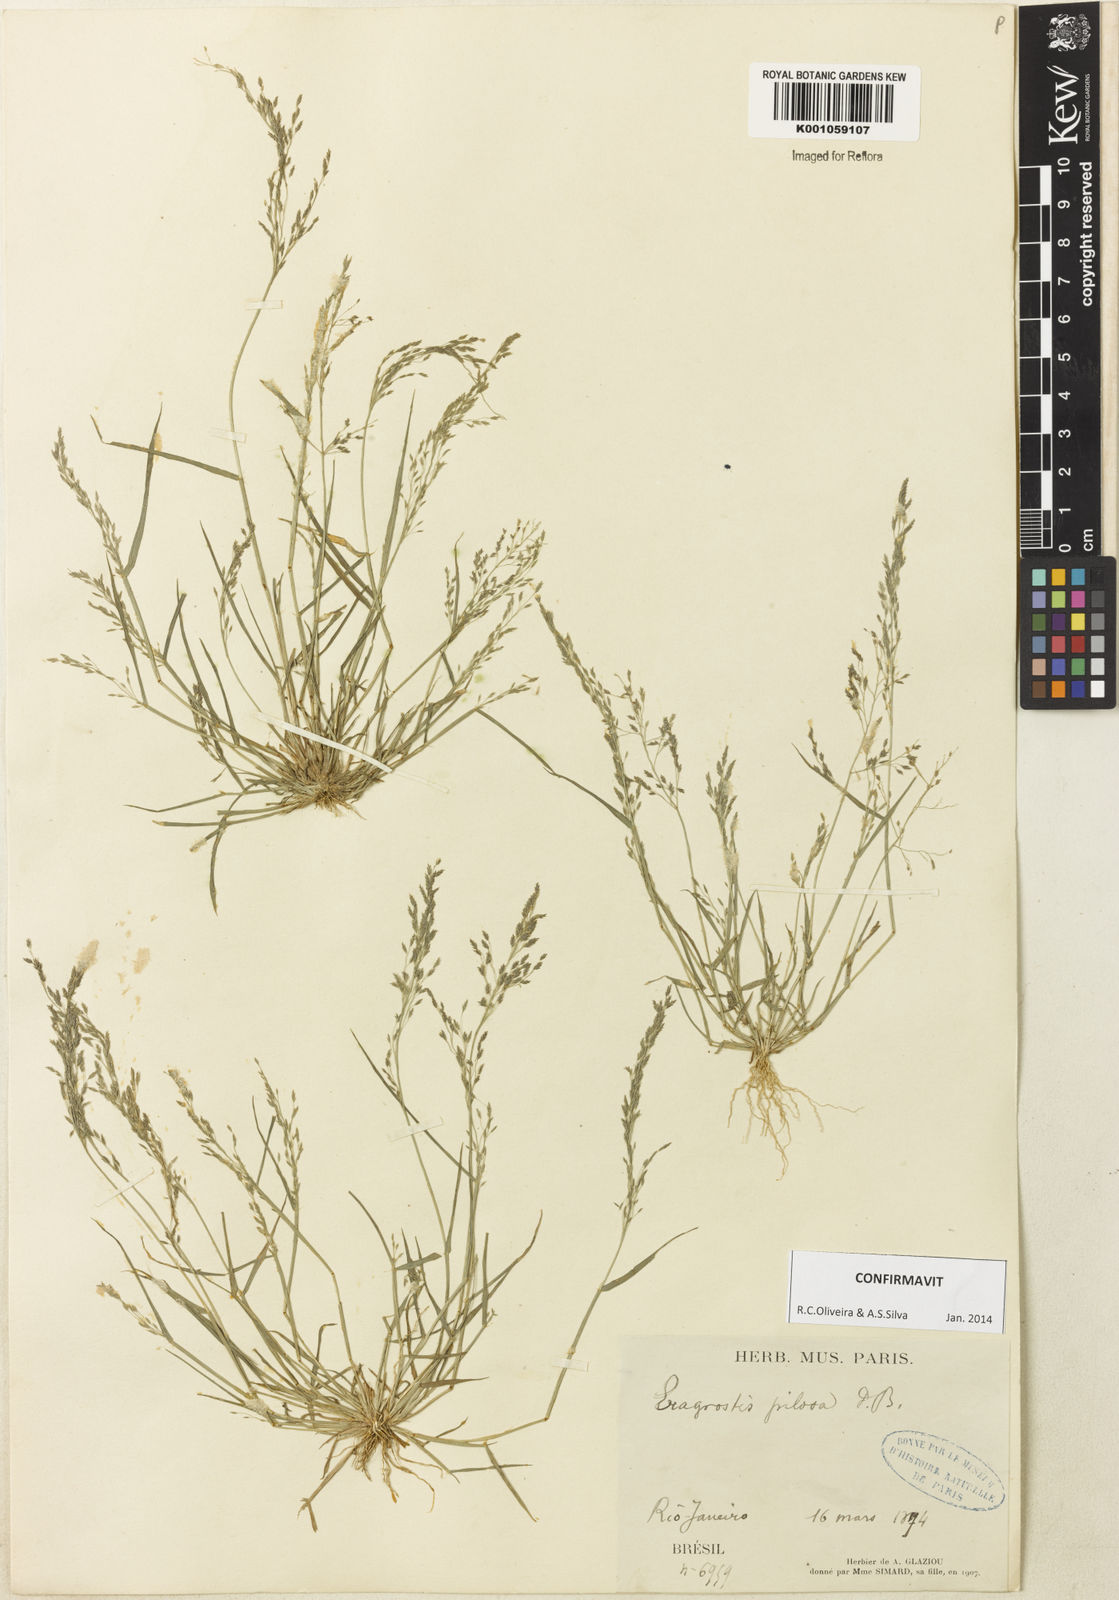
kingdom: Plantae
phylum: Tracheophyta
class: Liliopsida
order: Poales
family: Poaceae
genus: Eragrostis
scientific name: Eragrostis pilosa
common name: Indian lovegrass
